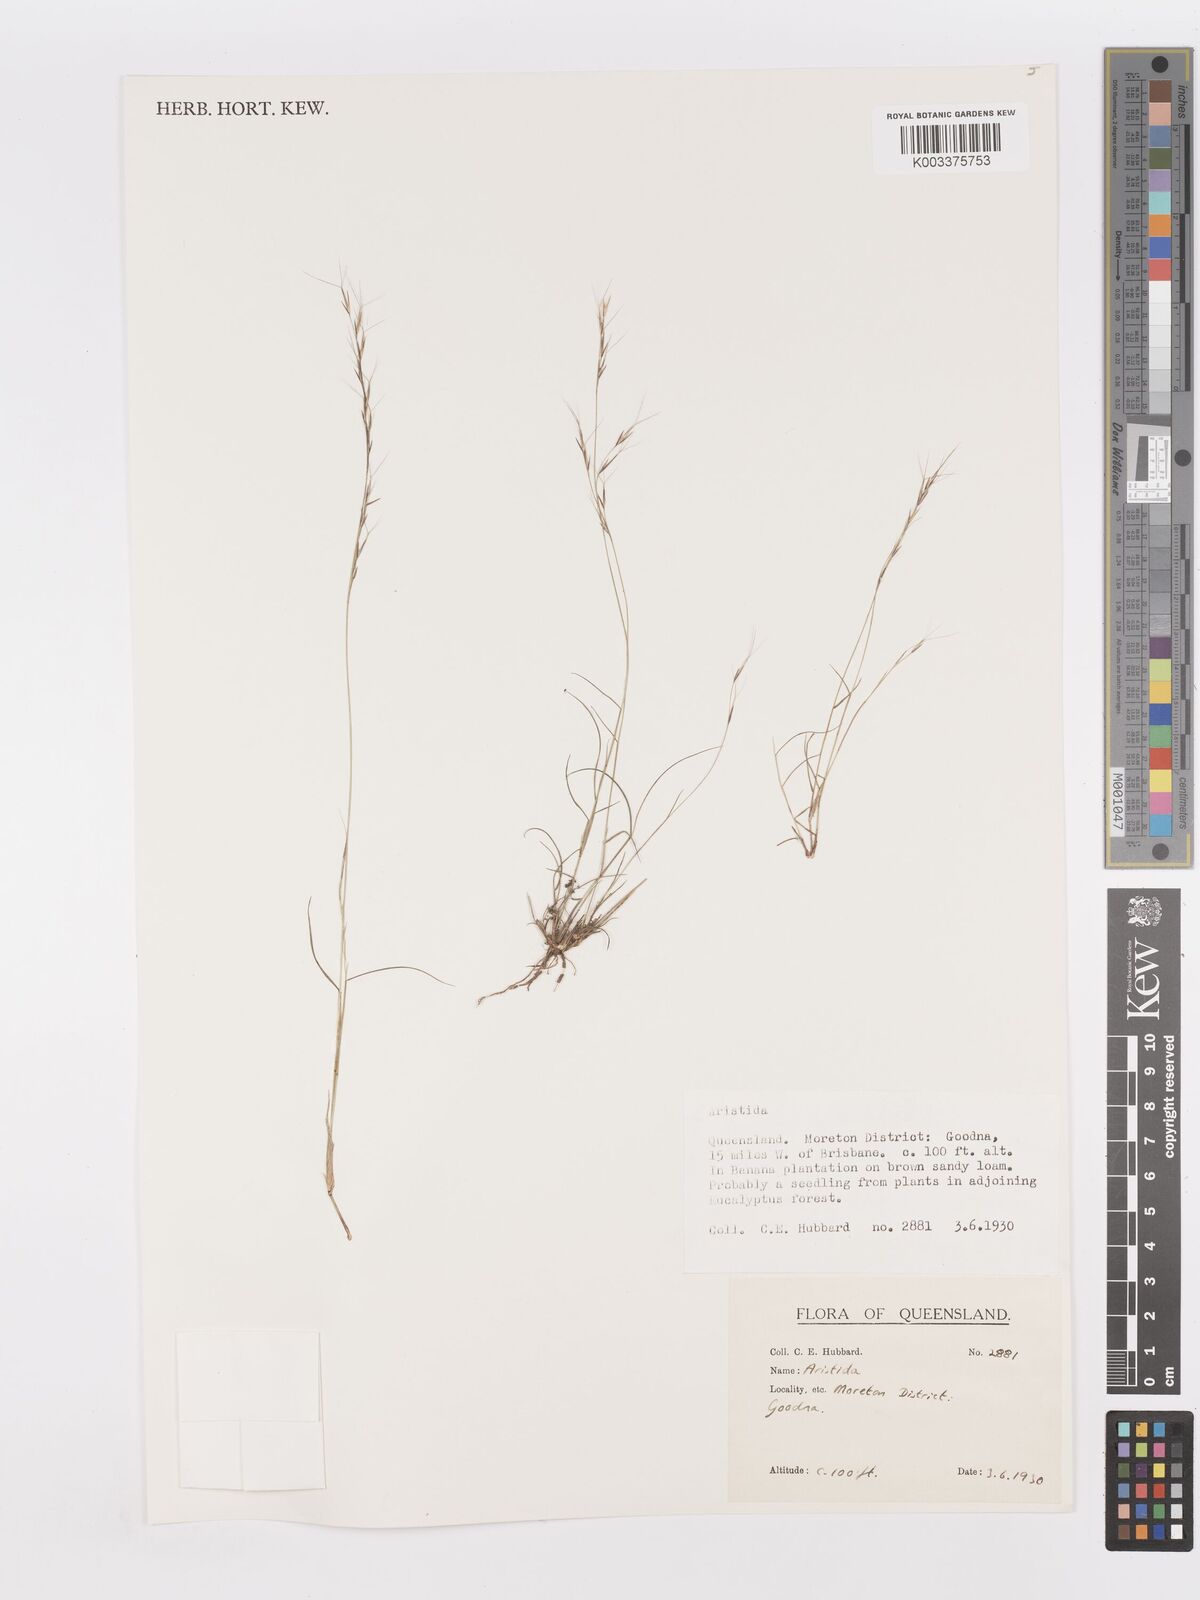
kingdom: Plantae
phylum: Tracheophyta
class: Liliopsida
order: Poales
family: Poaceae
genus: Aristida
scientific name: Aristida
